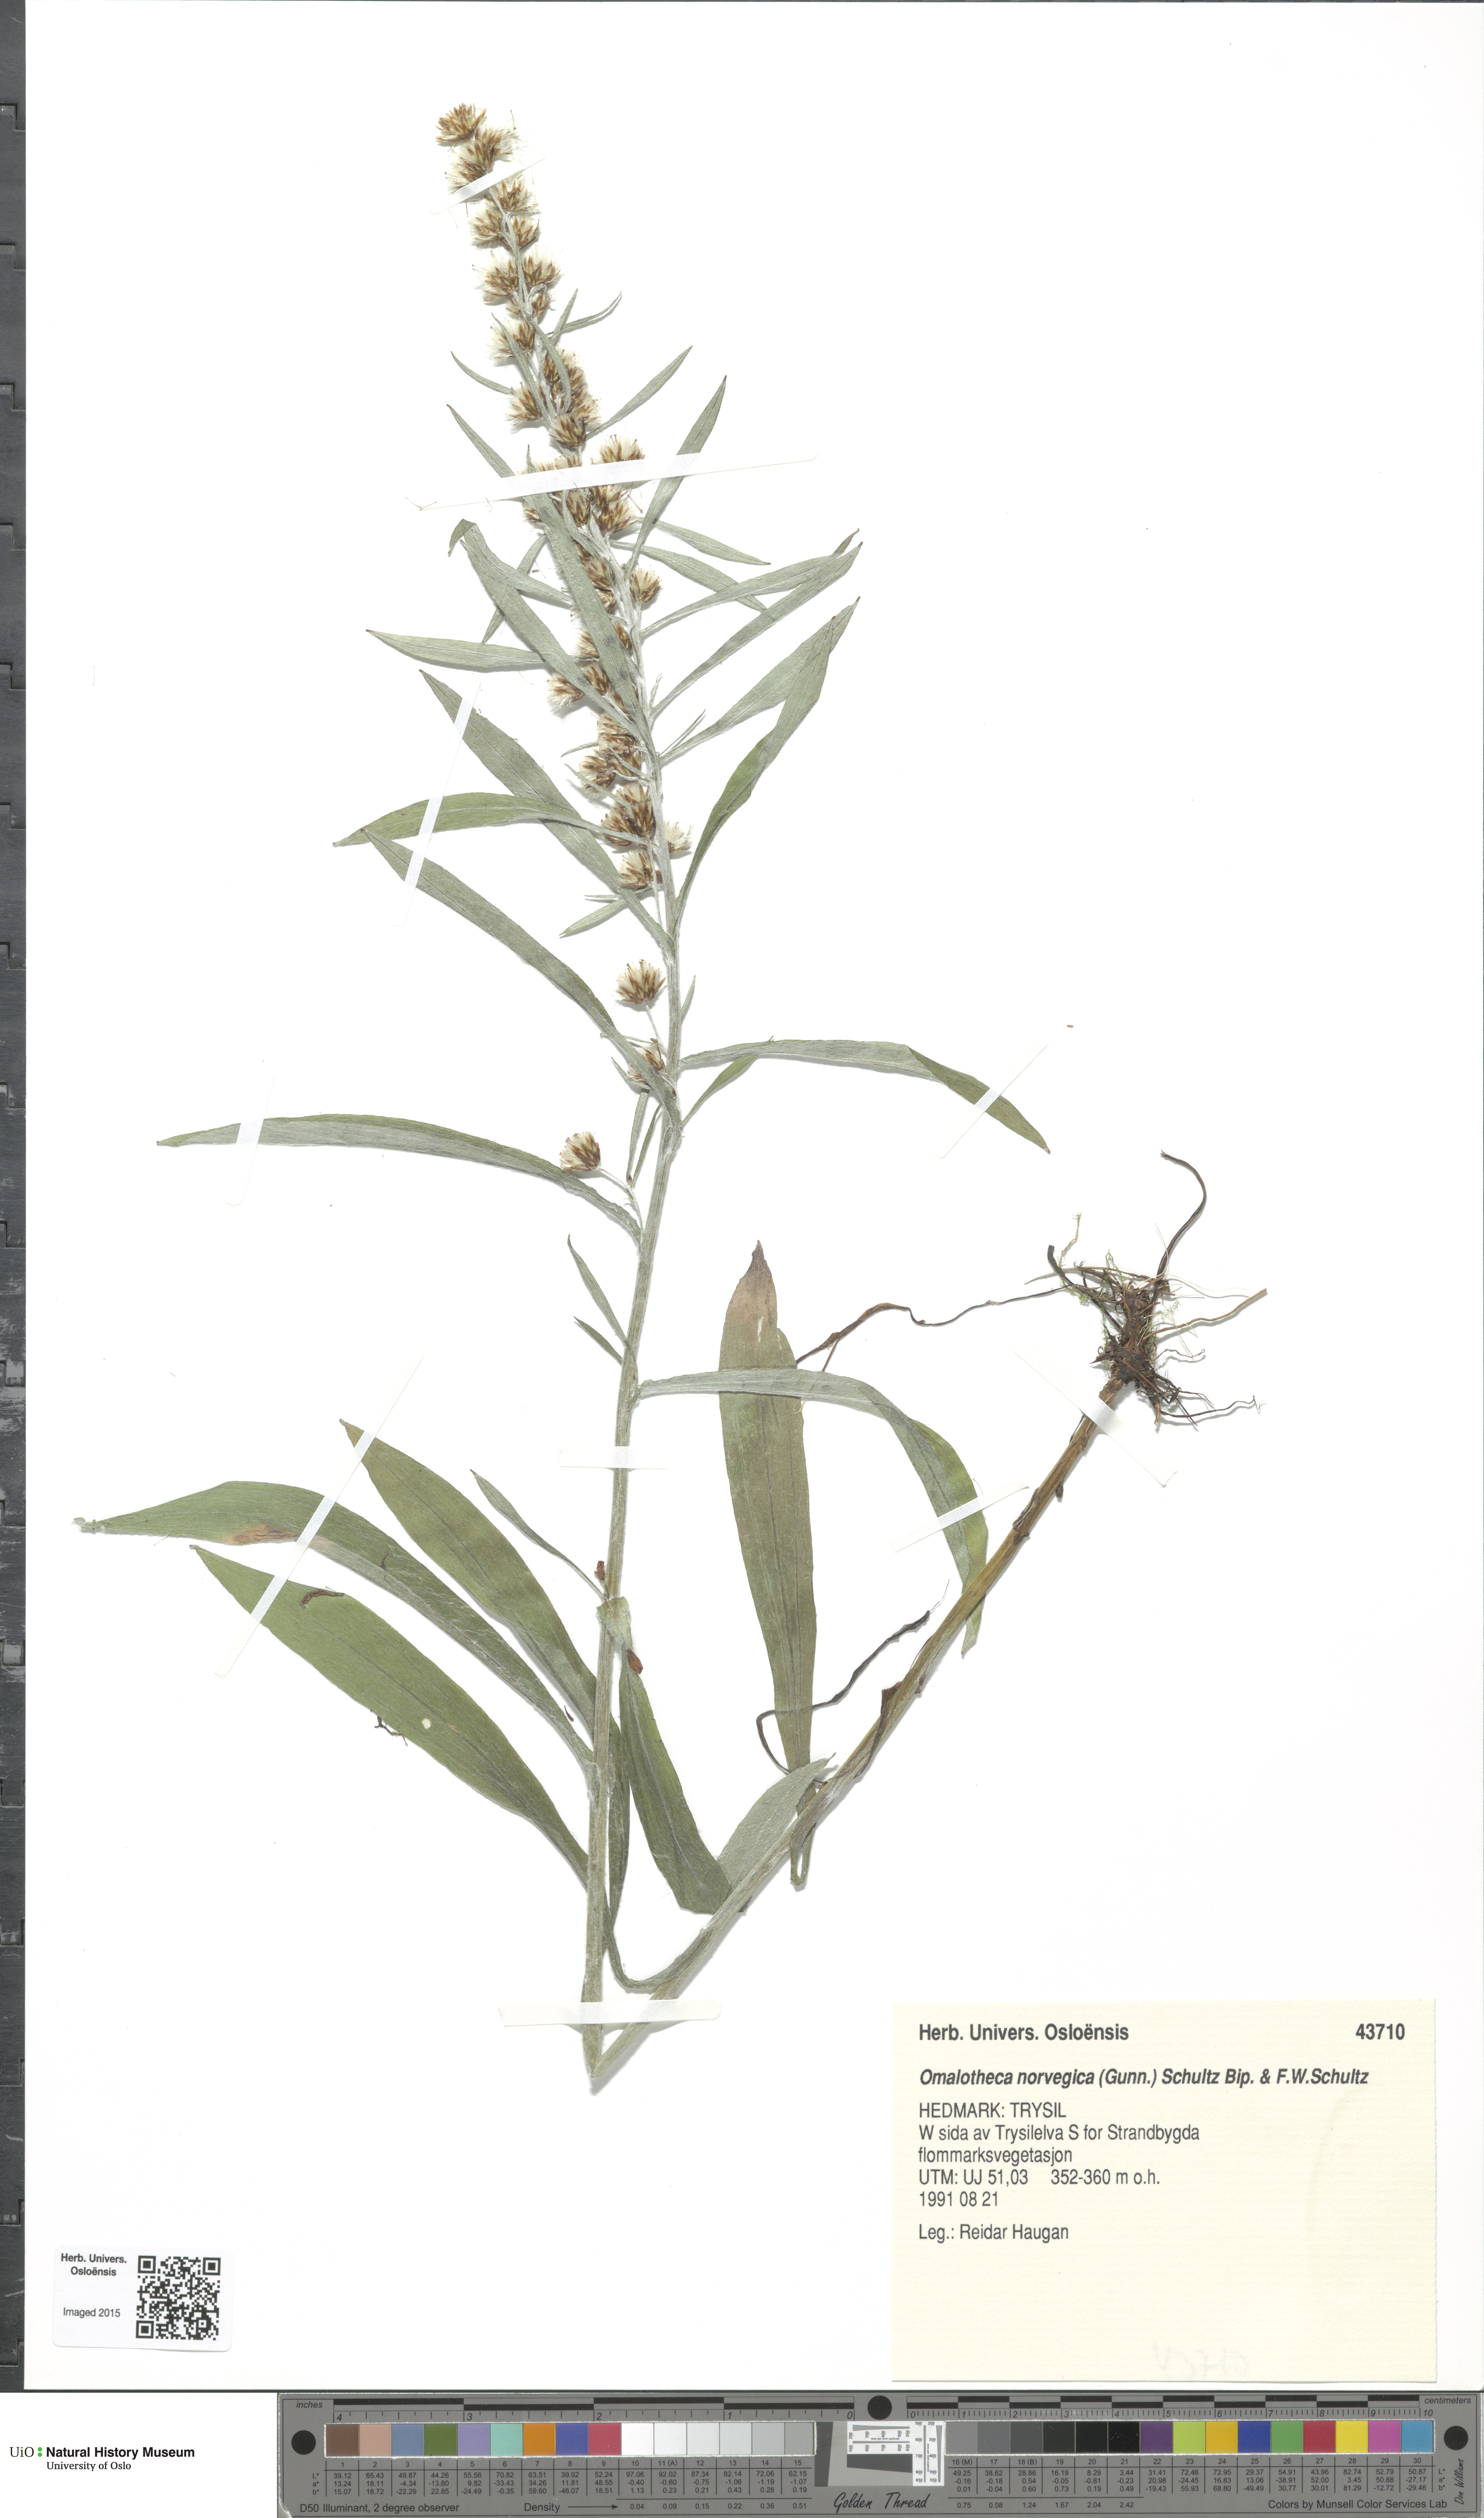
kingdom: Plantae
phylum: Tracheophyta
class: Magnoliopsida
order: Asterales
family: Asteraceae
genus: Omalotheca
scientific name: Omalotheca norvegica
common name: Norwegian arctic-cudweed
